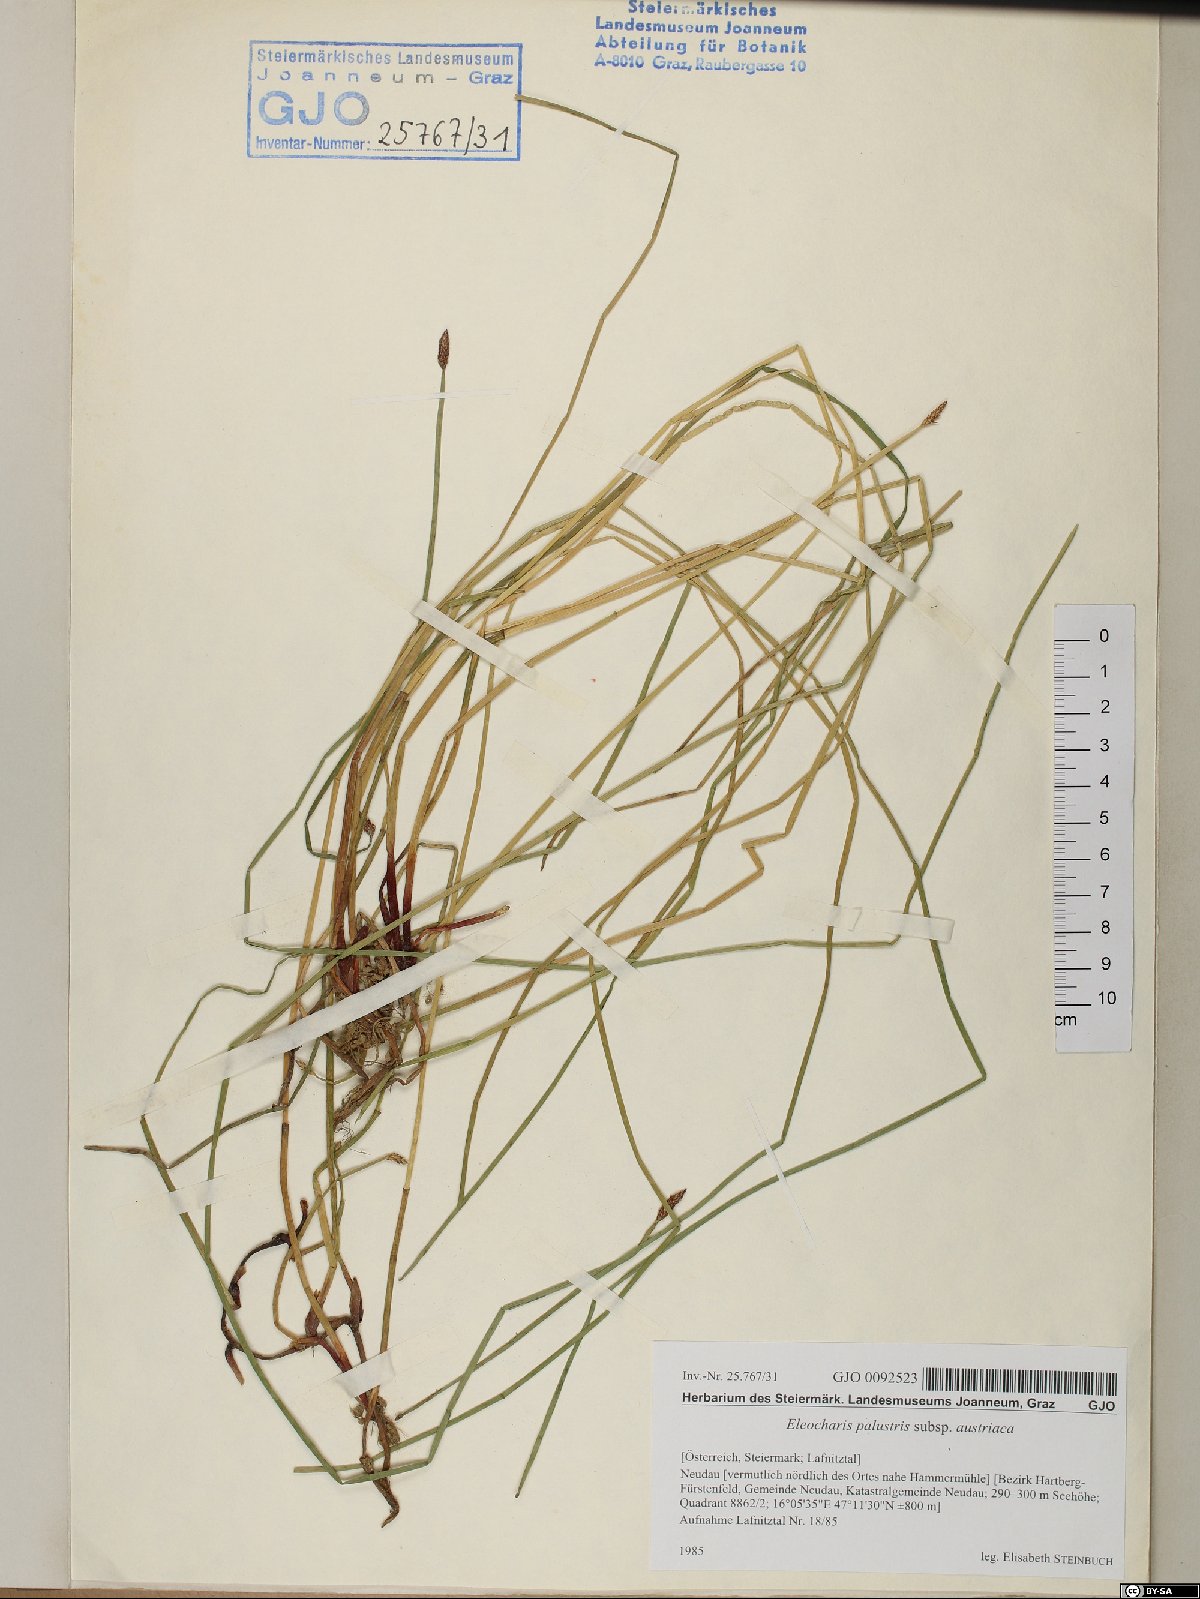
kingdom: Plantae
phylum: Tracheophyta
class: Liliopsida
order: Poales
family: Cyperaceae
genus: Eleocharis
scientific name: Eleocharis mamillata
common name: Northern spike-rush
